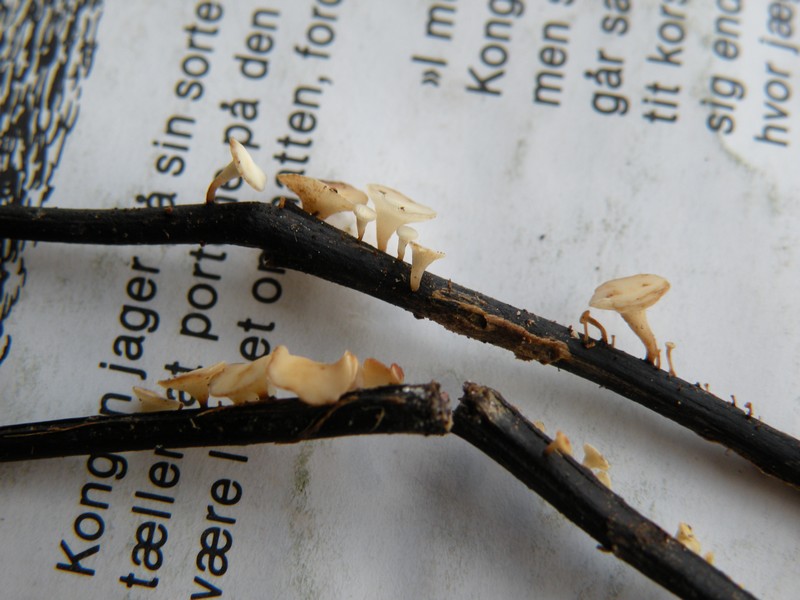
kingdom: Fungi
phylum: Ascomycota
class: Leotiomycetes
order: Helotiales
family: Helotiaceae
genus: Hymenoscyphus
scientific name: Hymenoscyphus fraxineus
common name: asketoptørre-stilkskive
